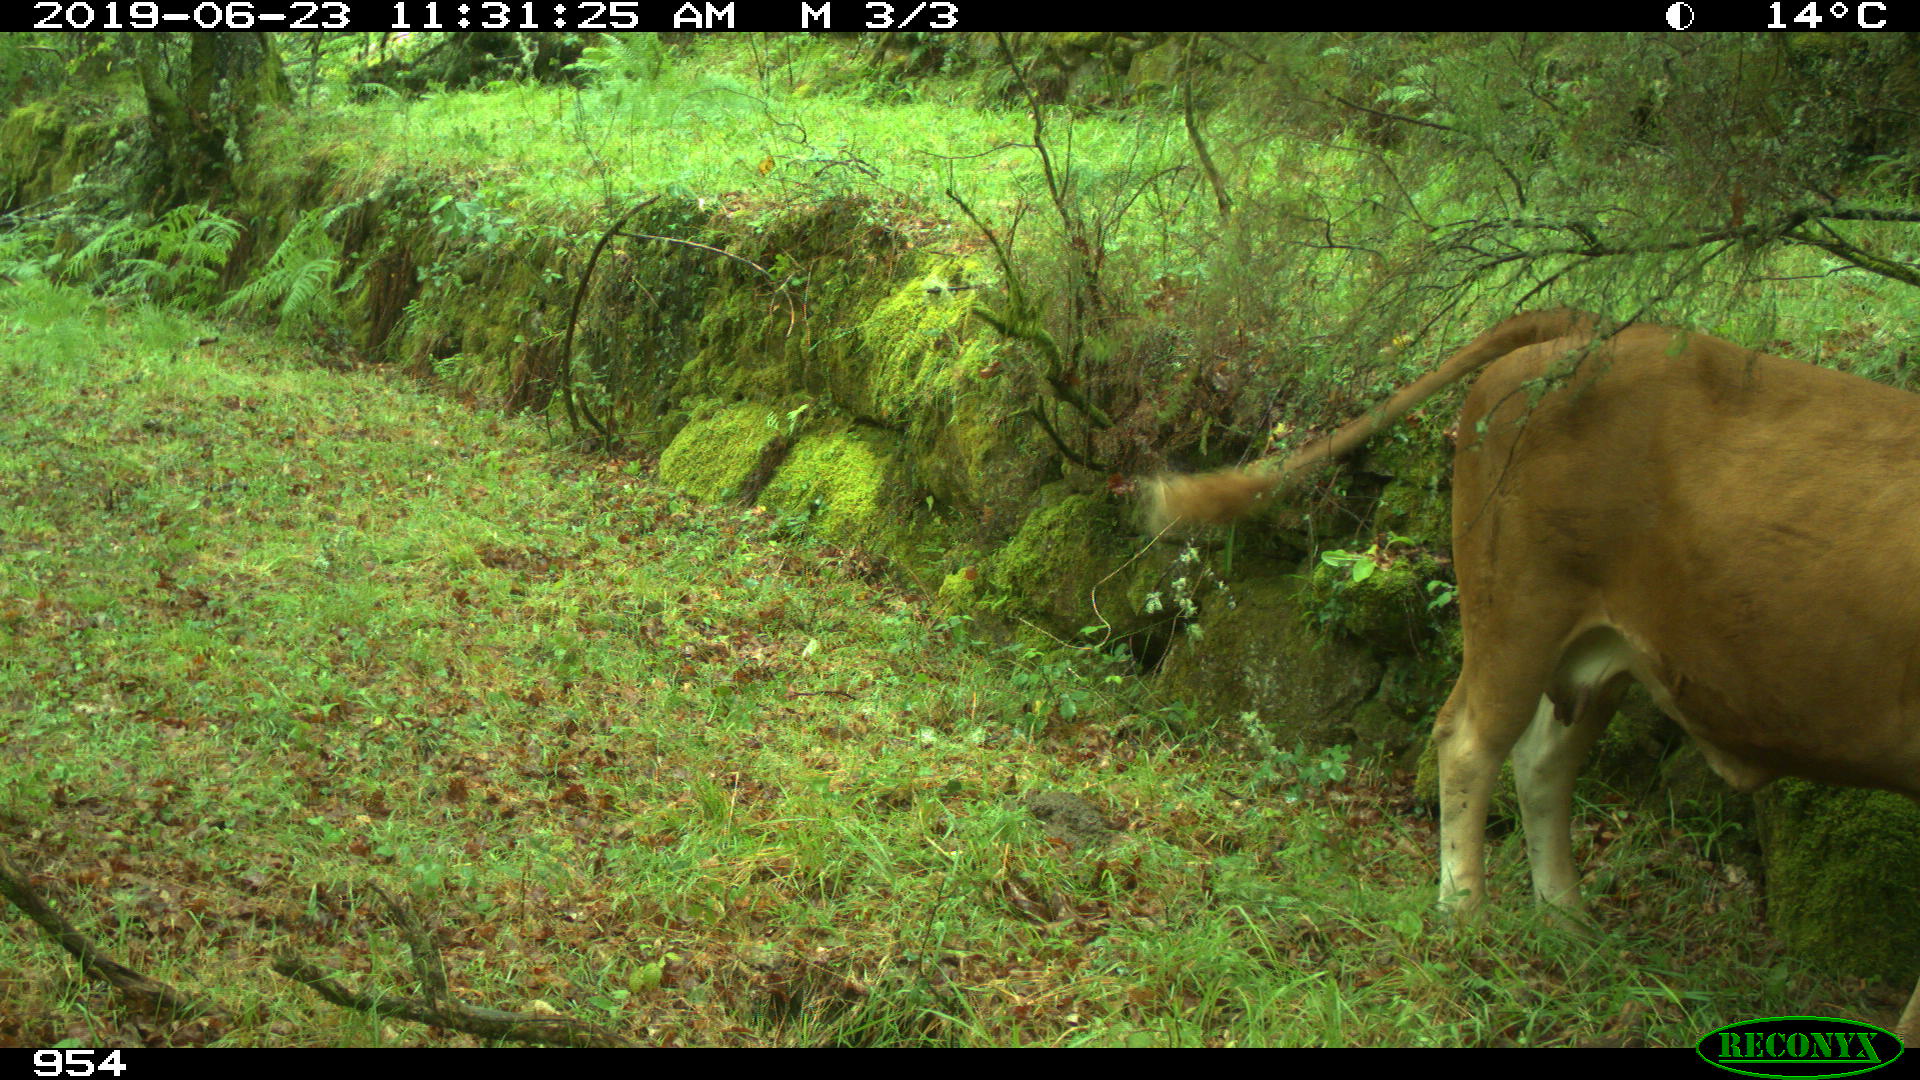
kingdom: Animalia
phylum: Chordata
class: Mammalia
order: Artiodactyla
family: Bovidae
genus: Bos
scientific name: Bos taurus
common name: Domesticated cattle
